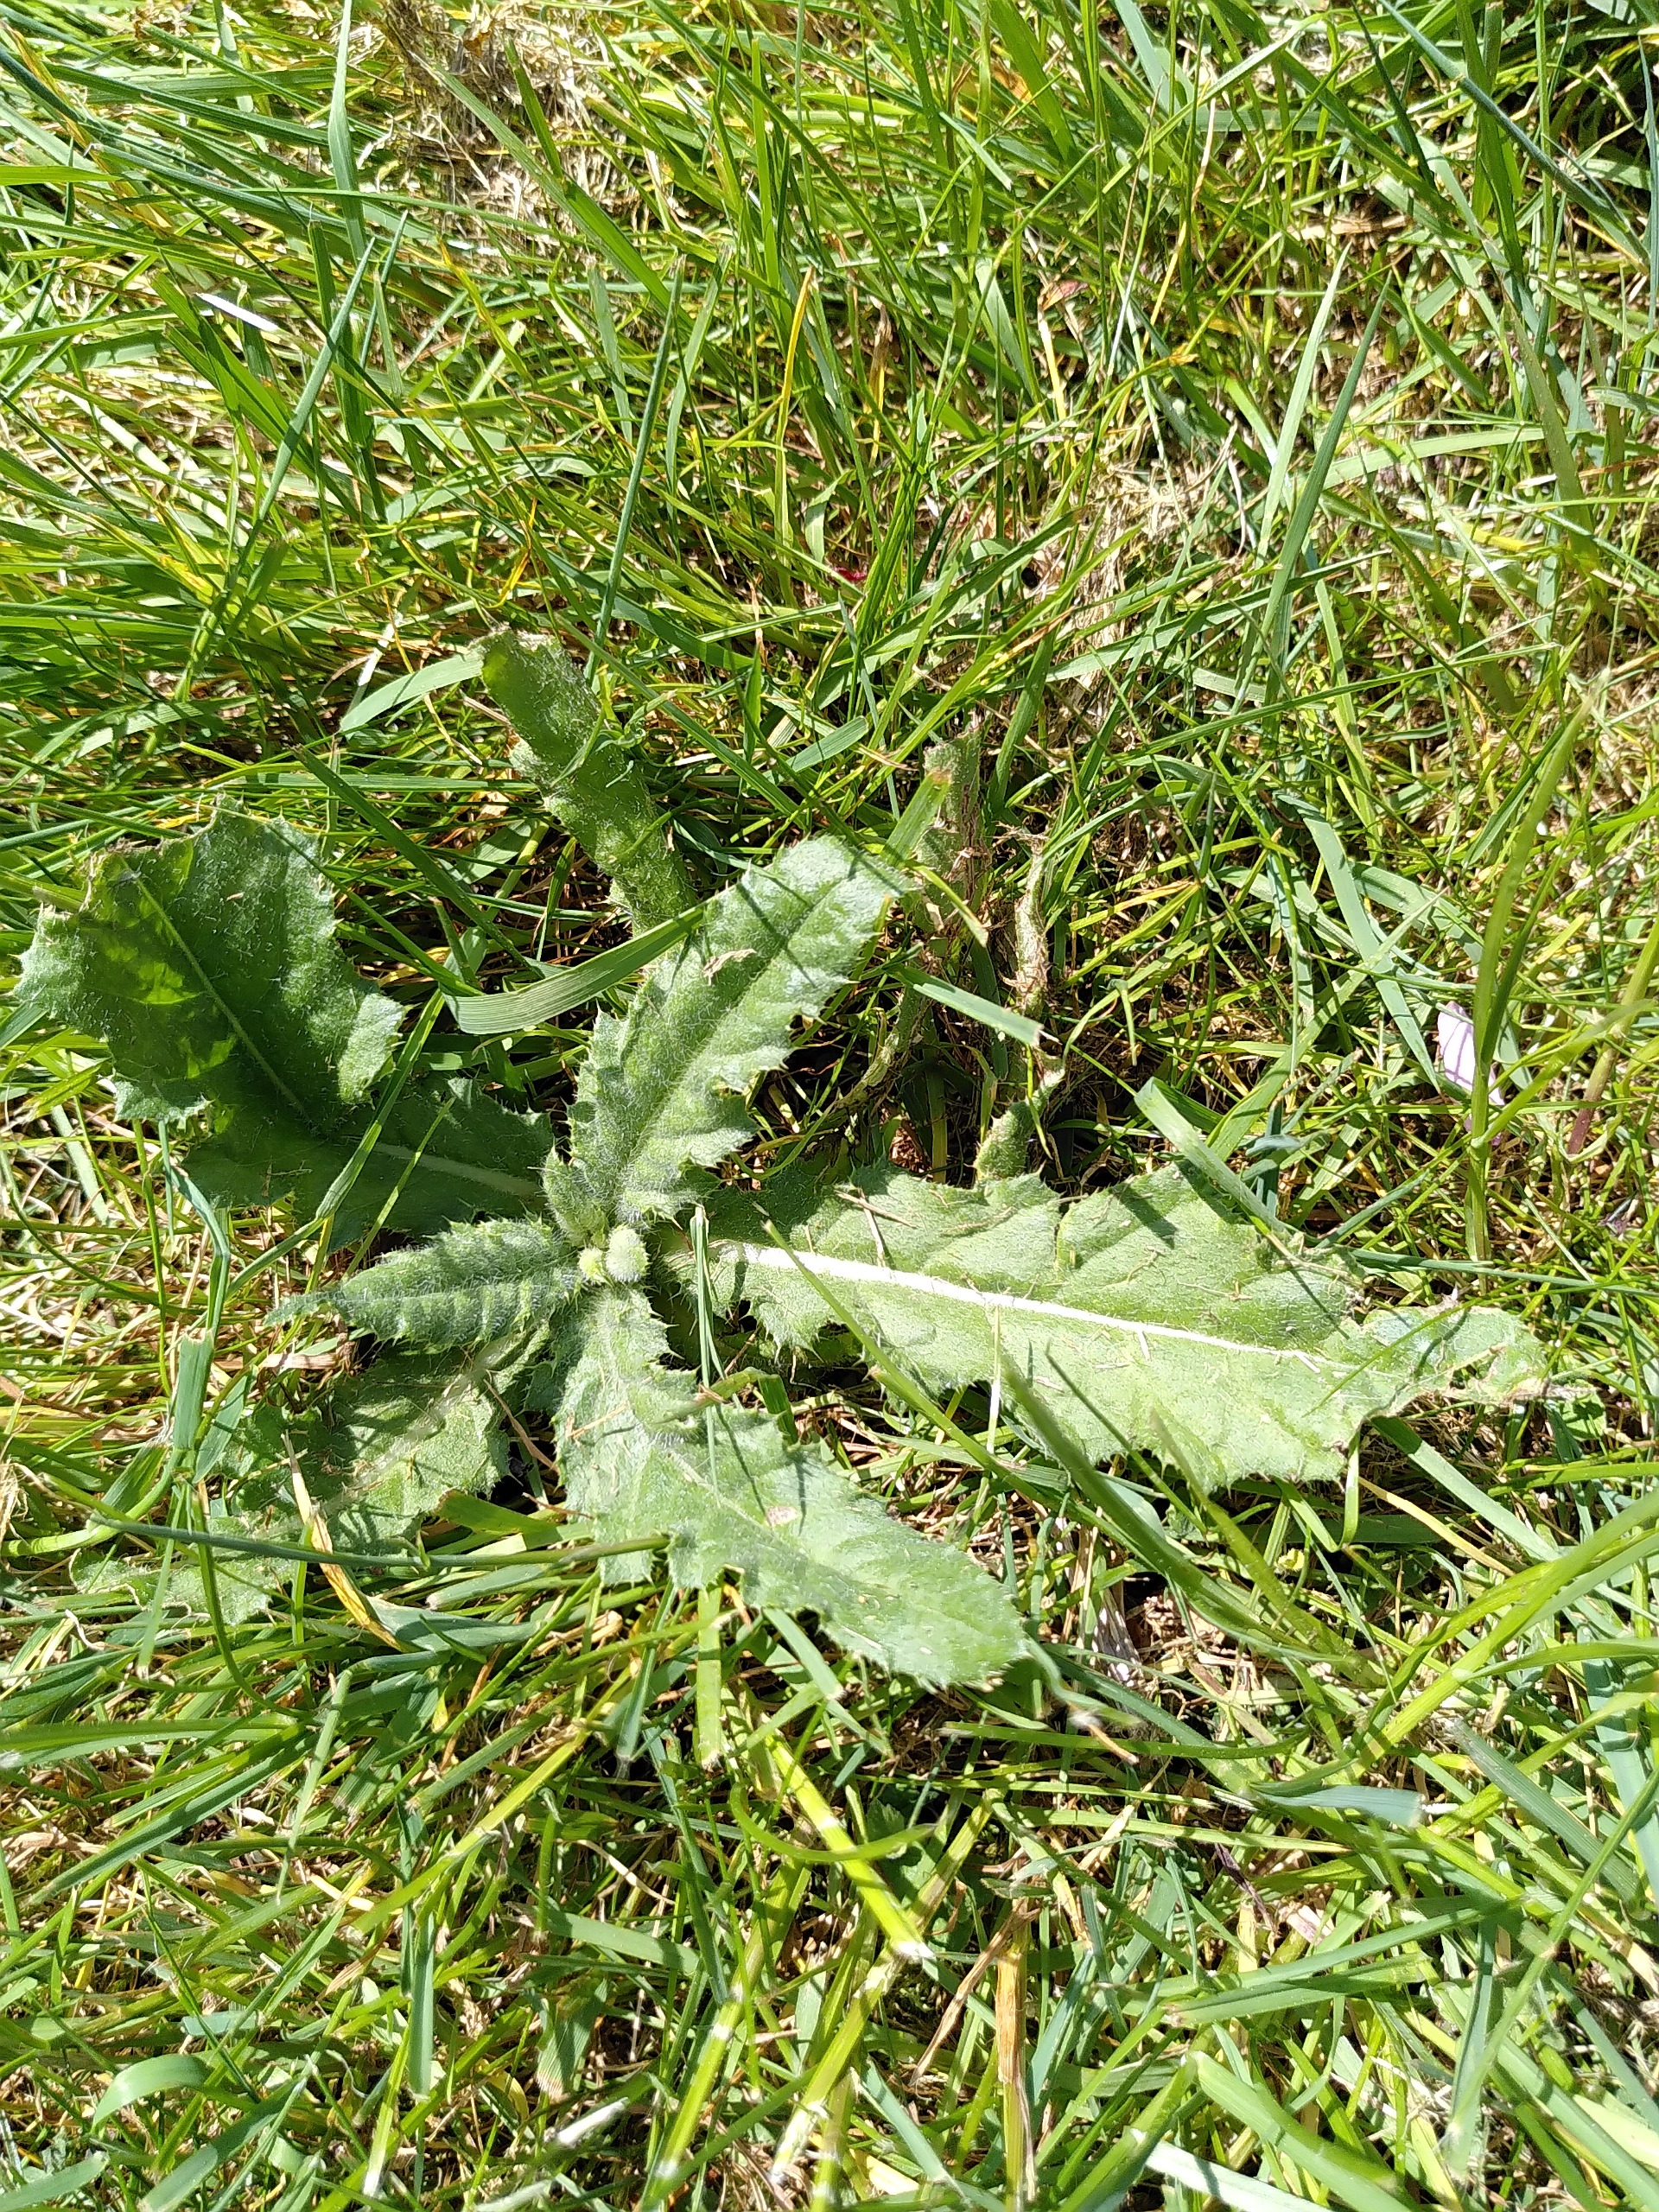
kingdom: Plantae
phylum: Tracheophyta
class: Magnoliopsida
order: Asterales
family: Asteraceae
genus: Cirsium
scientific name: Cirsium arvense
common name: Ager-tidsel
